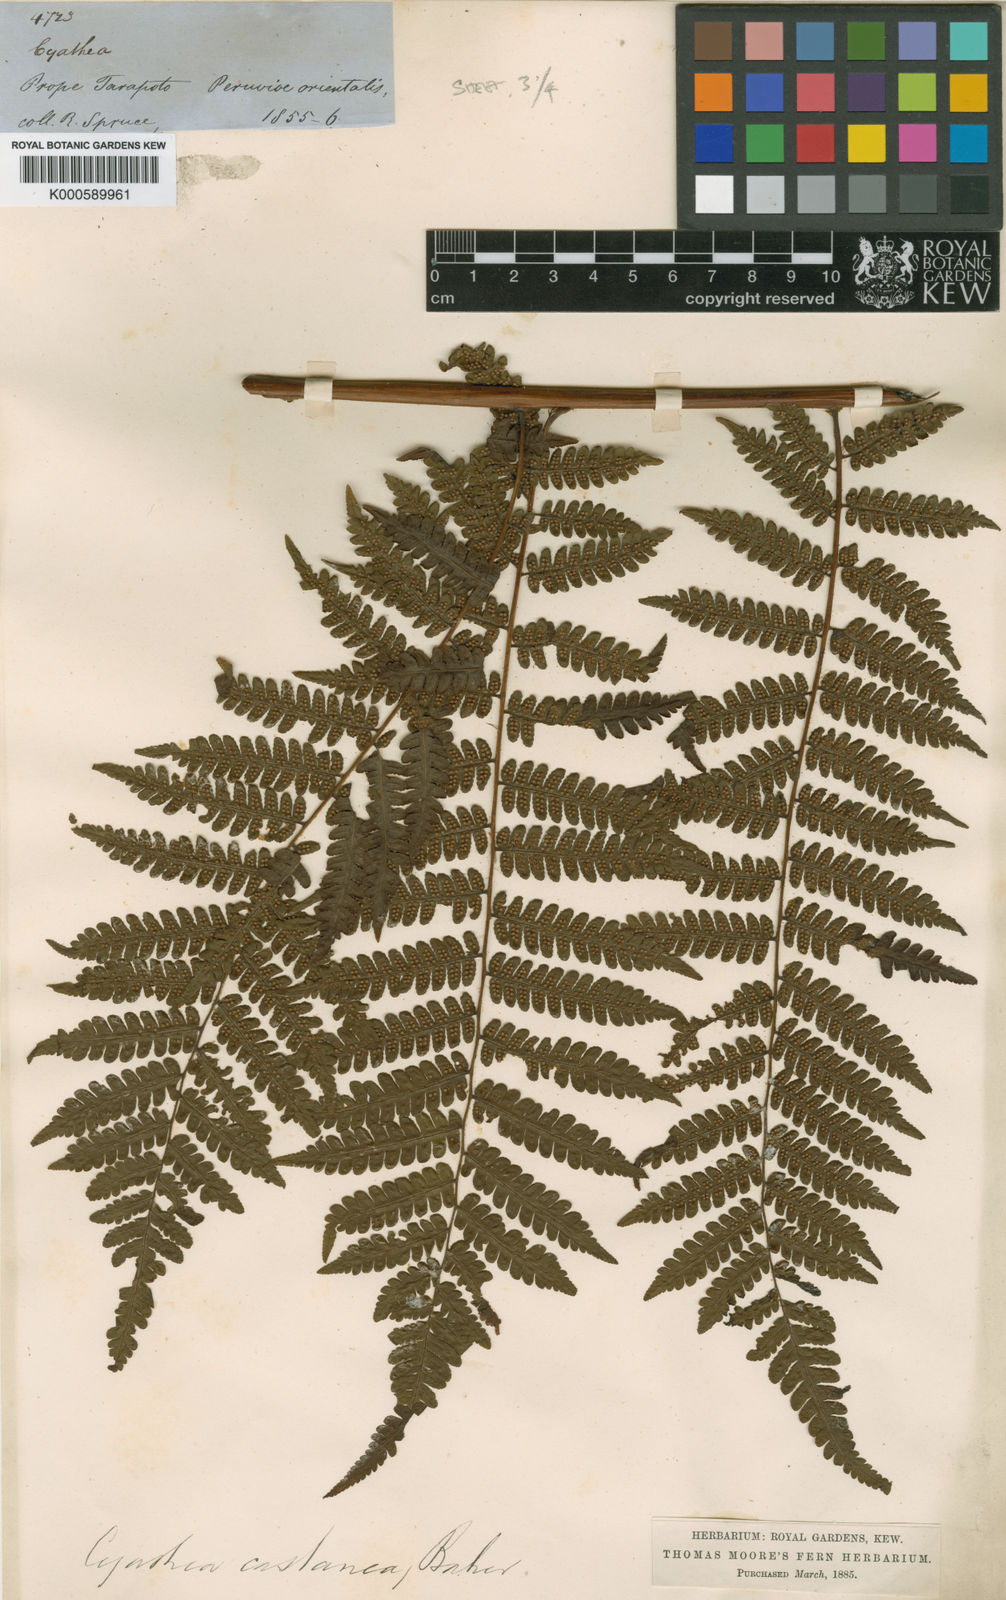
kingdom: Plantae
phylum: Tracheophyta
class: Polypodiopsida
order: Cyatheales
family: Cyatheaceae
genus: Cyathea
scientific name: Cyathea lechleri
